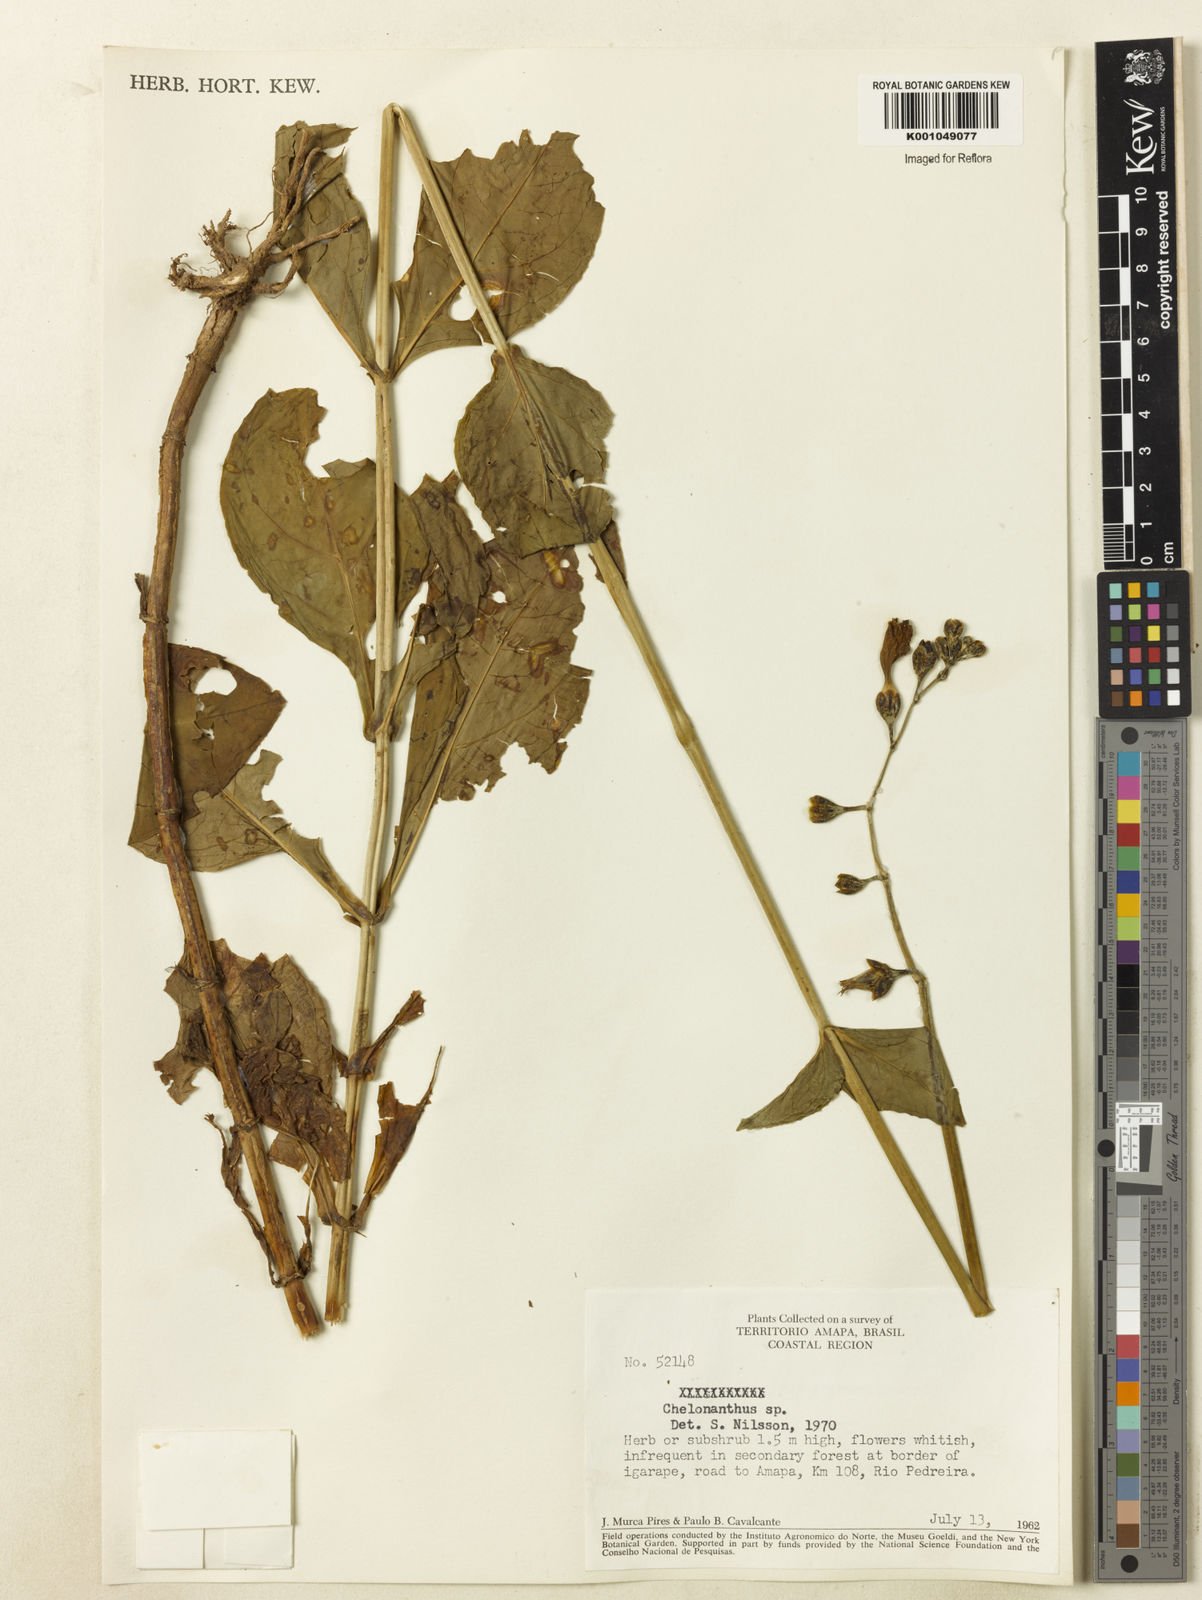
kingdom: Plantae
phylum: Tracheophyta
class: Magnoliopsida
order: Gentianales
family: Gentianaceae
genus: Chelonanthus
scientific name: Chelonanthus
